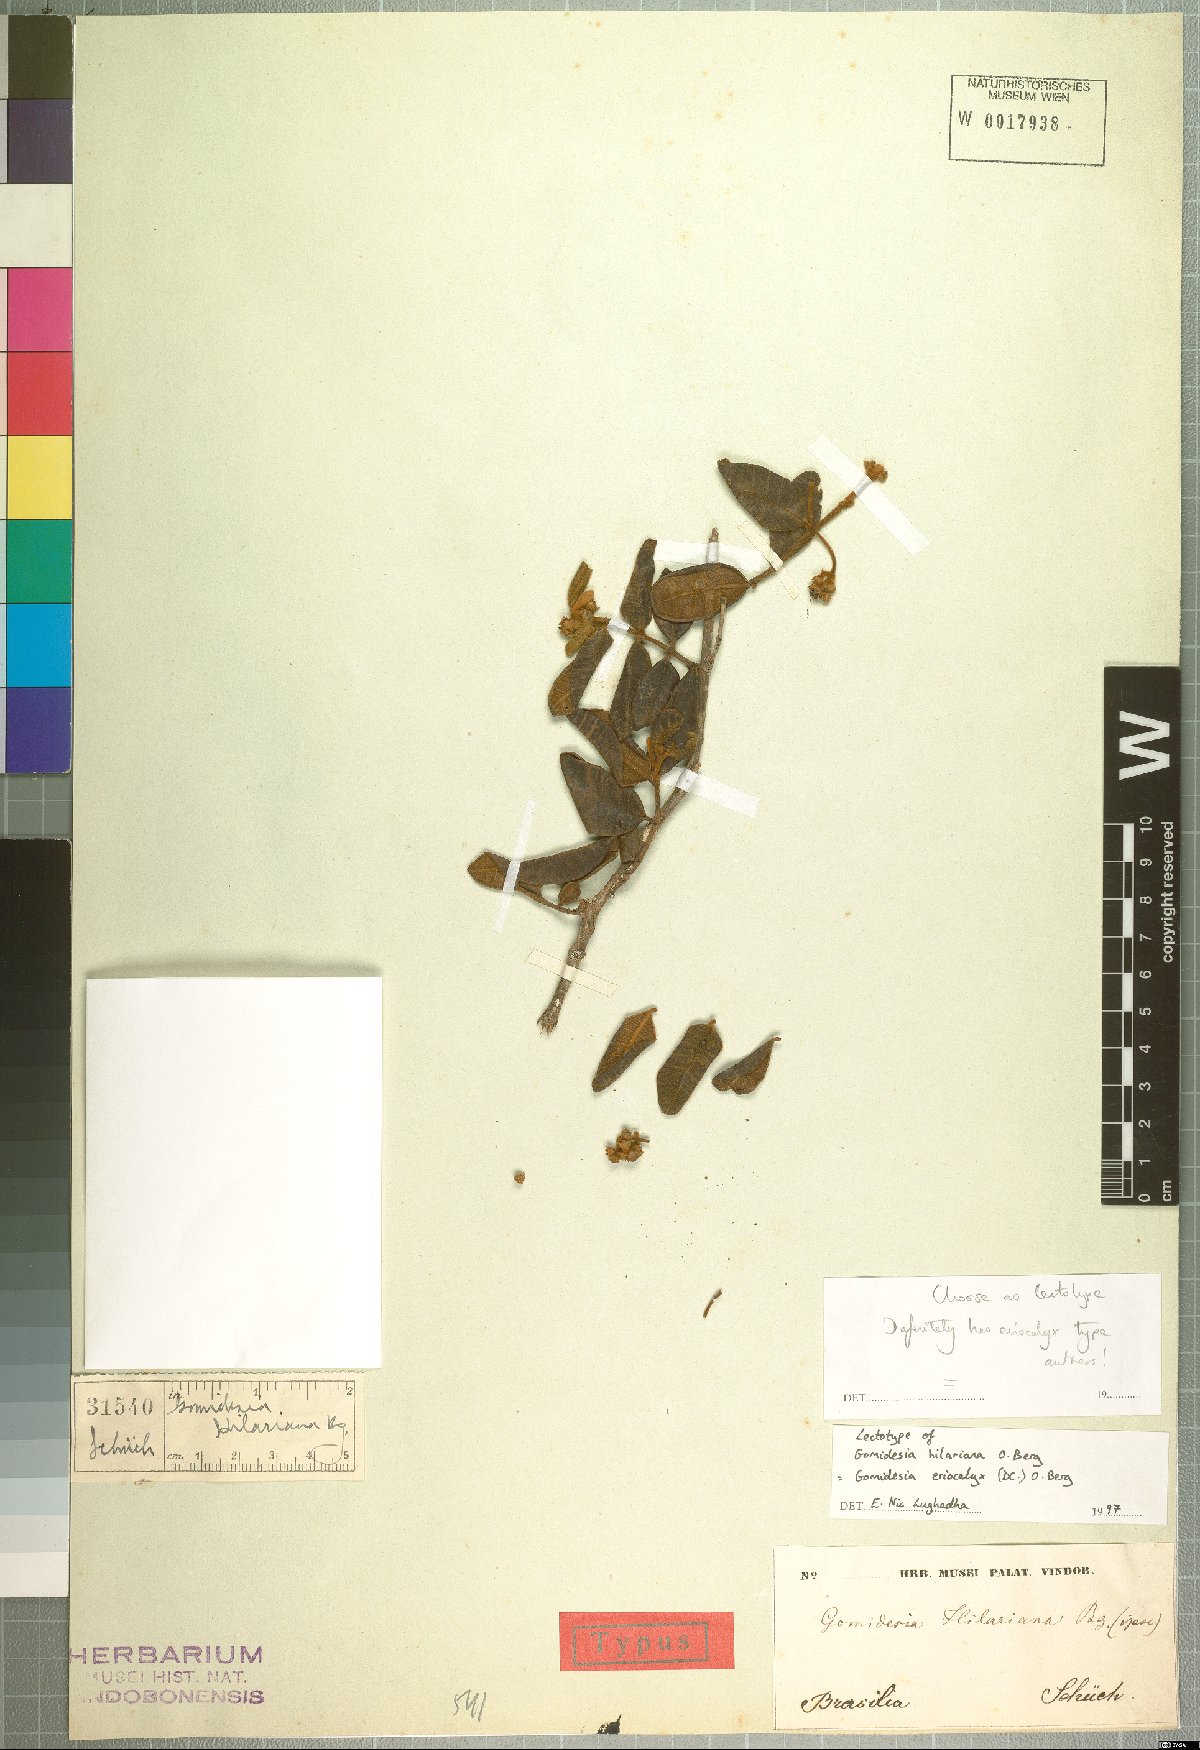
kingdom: Plantae
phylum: Tracheophyta
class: Magnoliopsida
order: Myrtales
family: Myrtaceae
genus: Myrcia
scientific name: Myrcia eriocalyx
